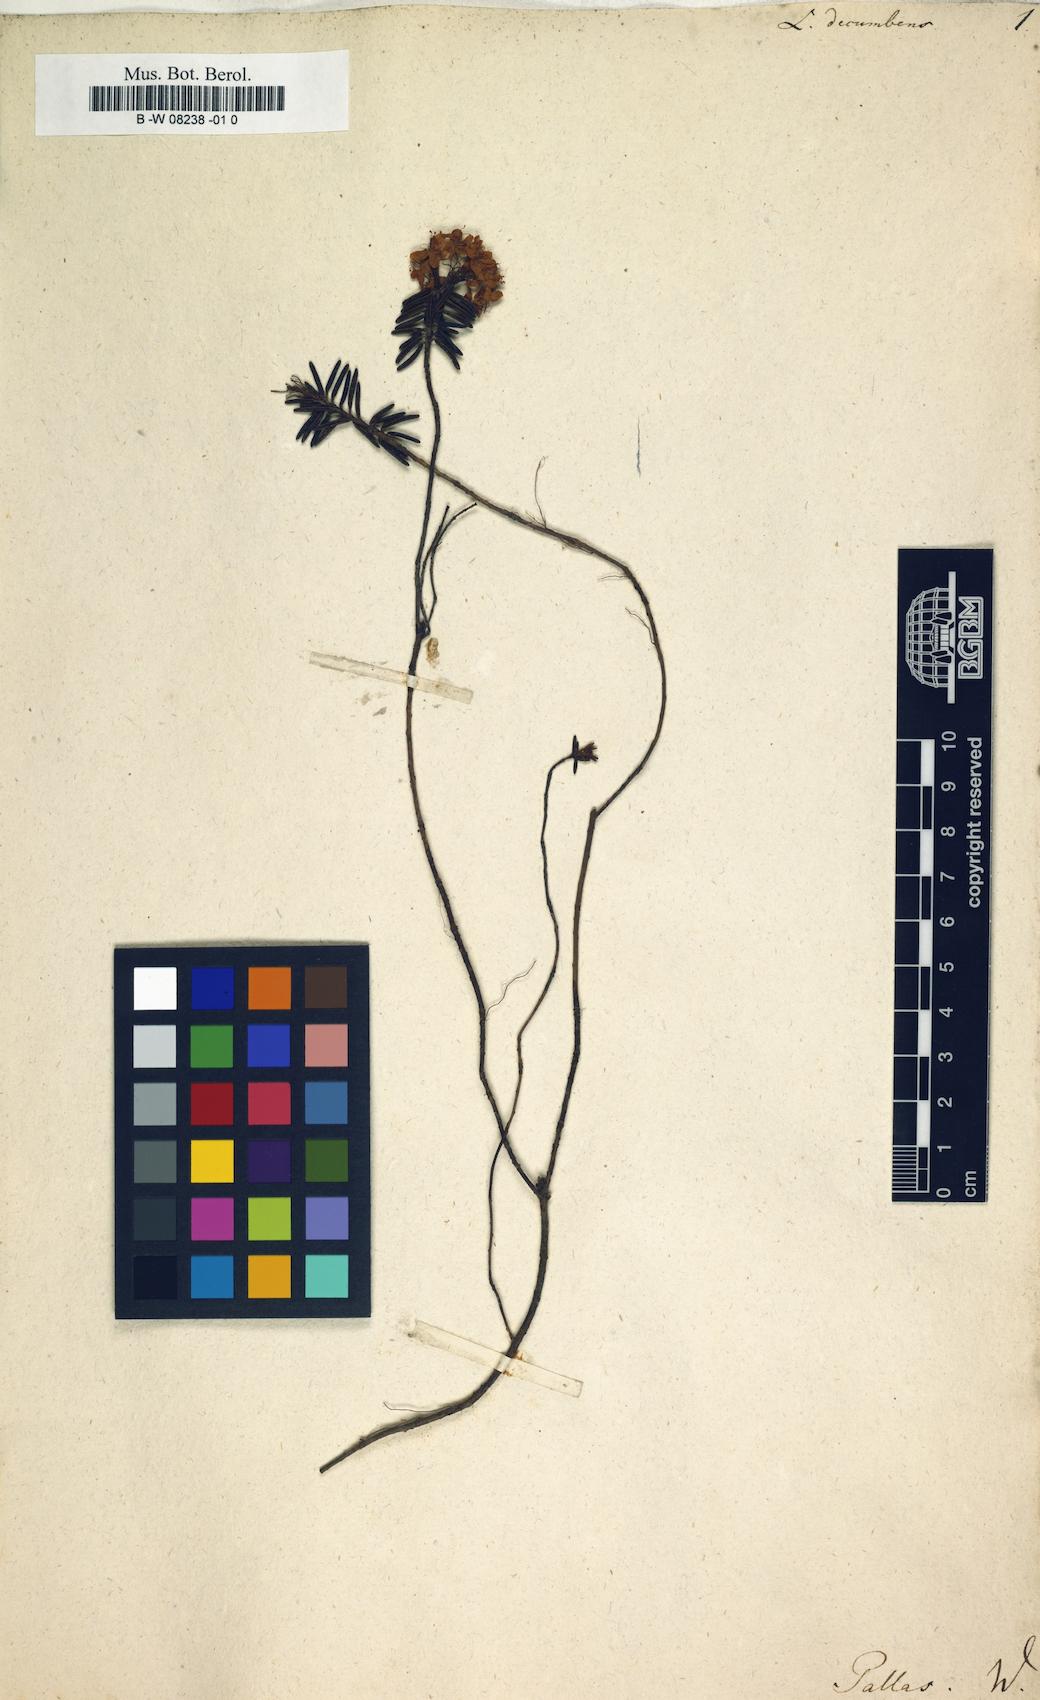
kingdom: Plantae
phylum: Tracheophyta
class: Magnoliopsida
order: Ericales
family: Ericaceae
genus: Rhododendron
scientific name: Rhododendron Ledum decumbens
